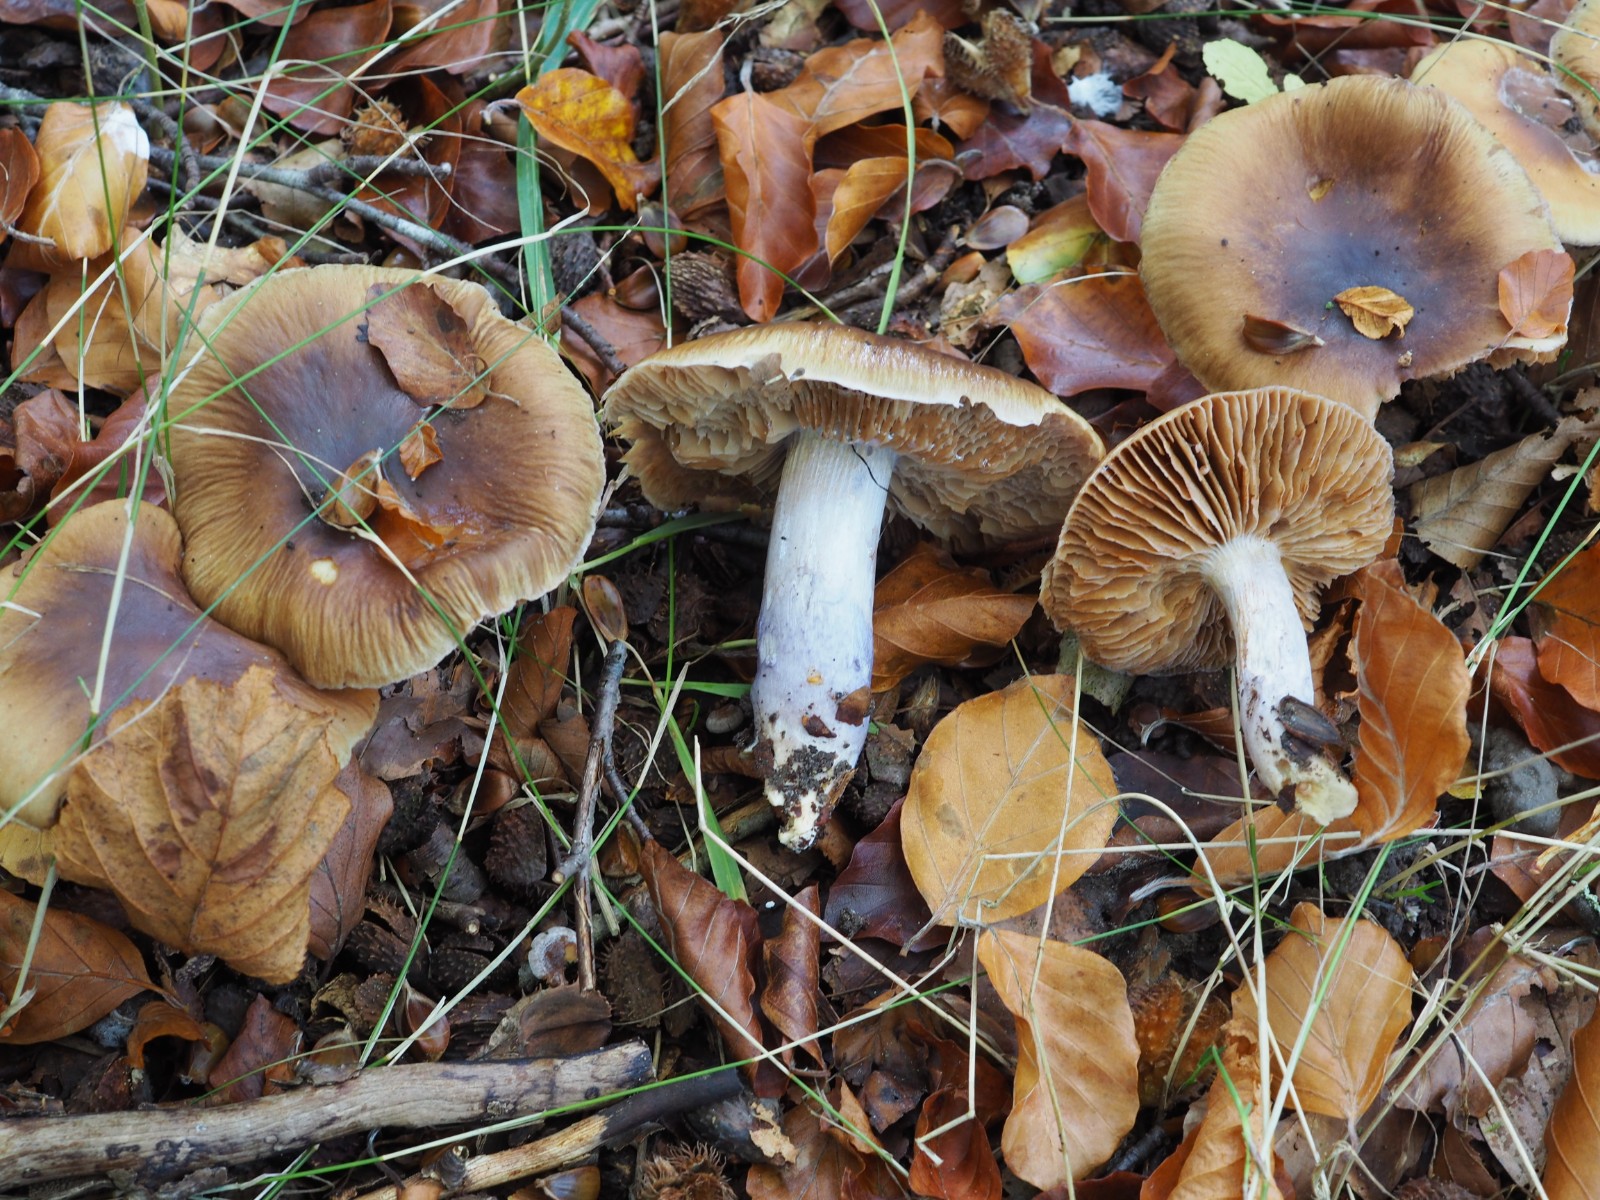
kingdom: Fungi
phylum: Basidiomycota
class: Agaricomycetes
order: Agaricales
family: Cortinariaceae
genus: Cortinarius
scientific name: Cortinarius elatior
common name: høj slørhat
